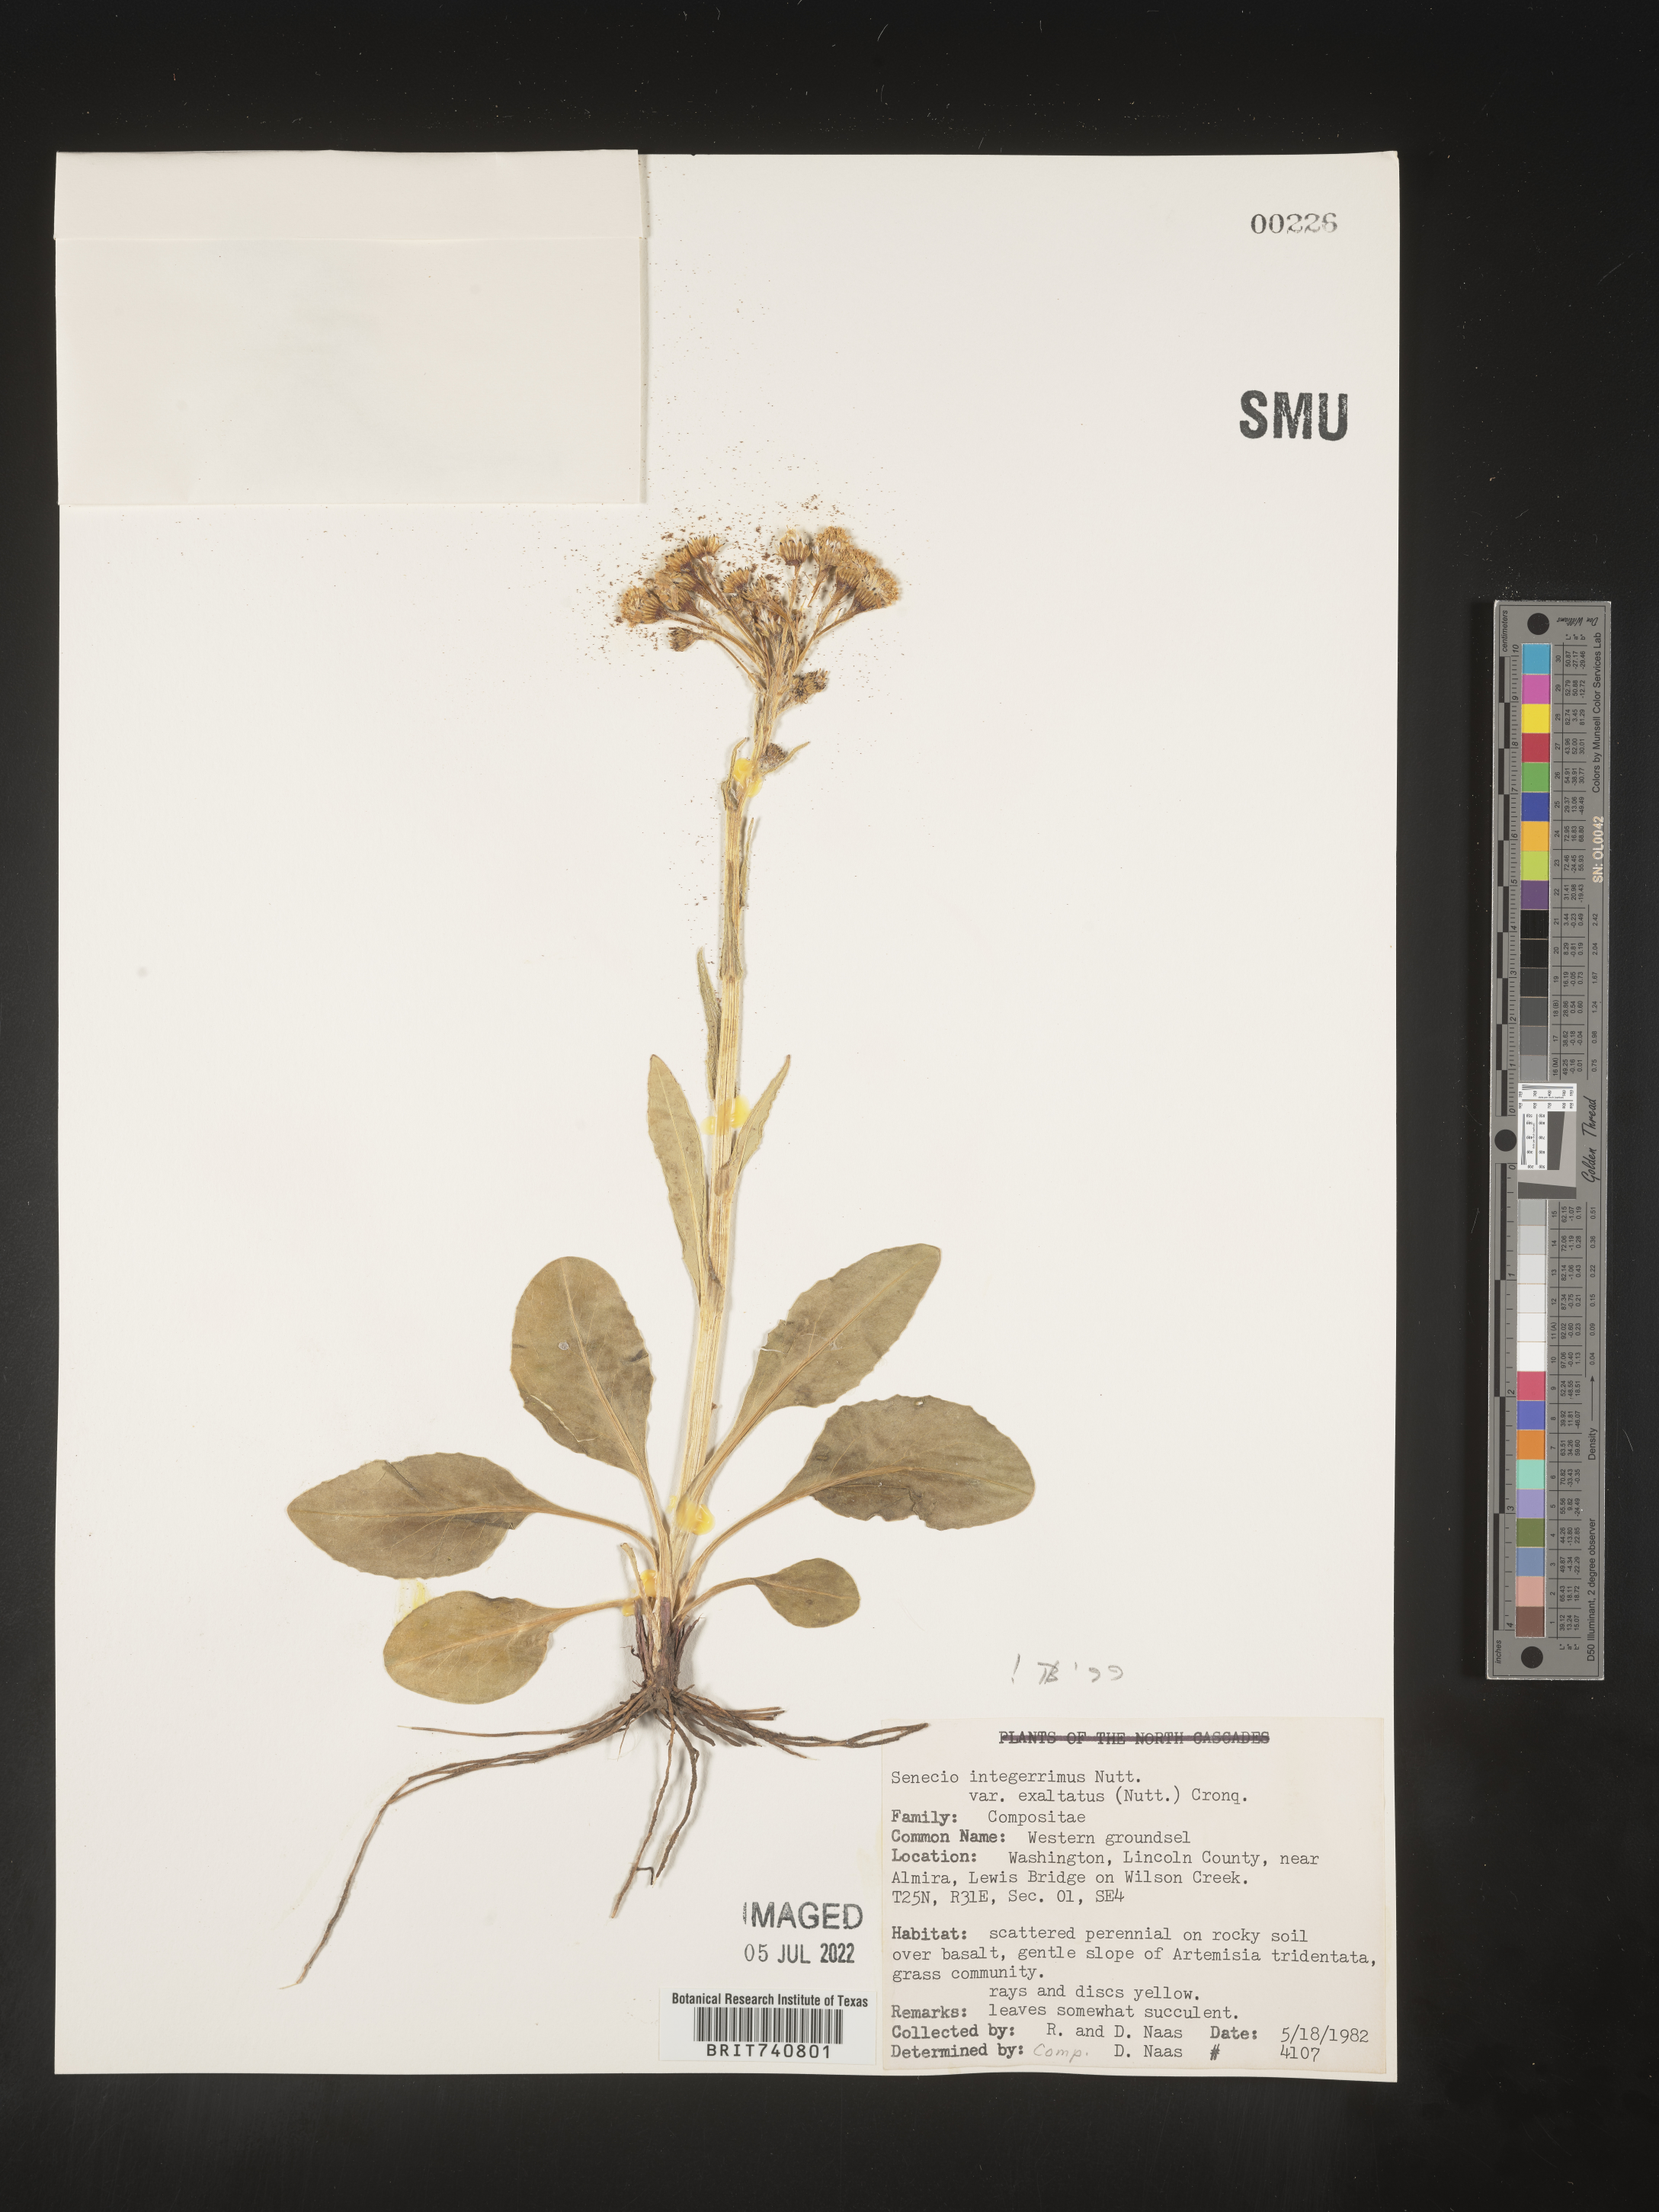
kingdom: Plantae
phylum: Tracheophyta
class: Magnoliopsida
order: Asterales
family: Asteraceae
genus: Senecio
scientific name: Senecio integerrimus
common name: Gaugeplant
